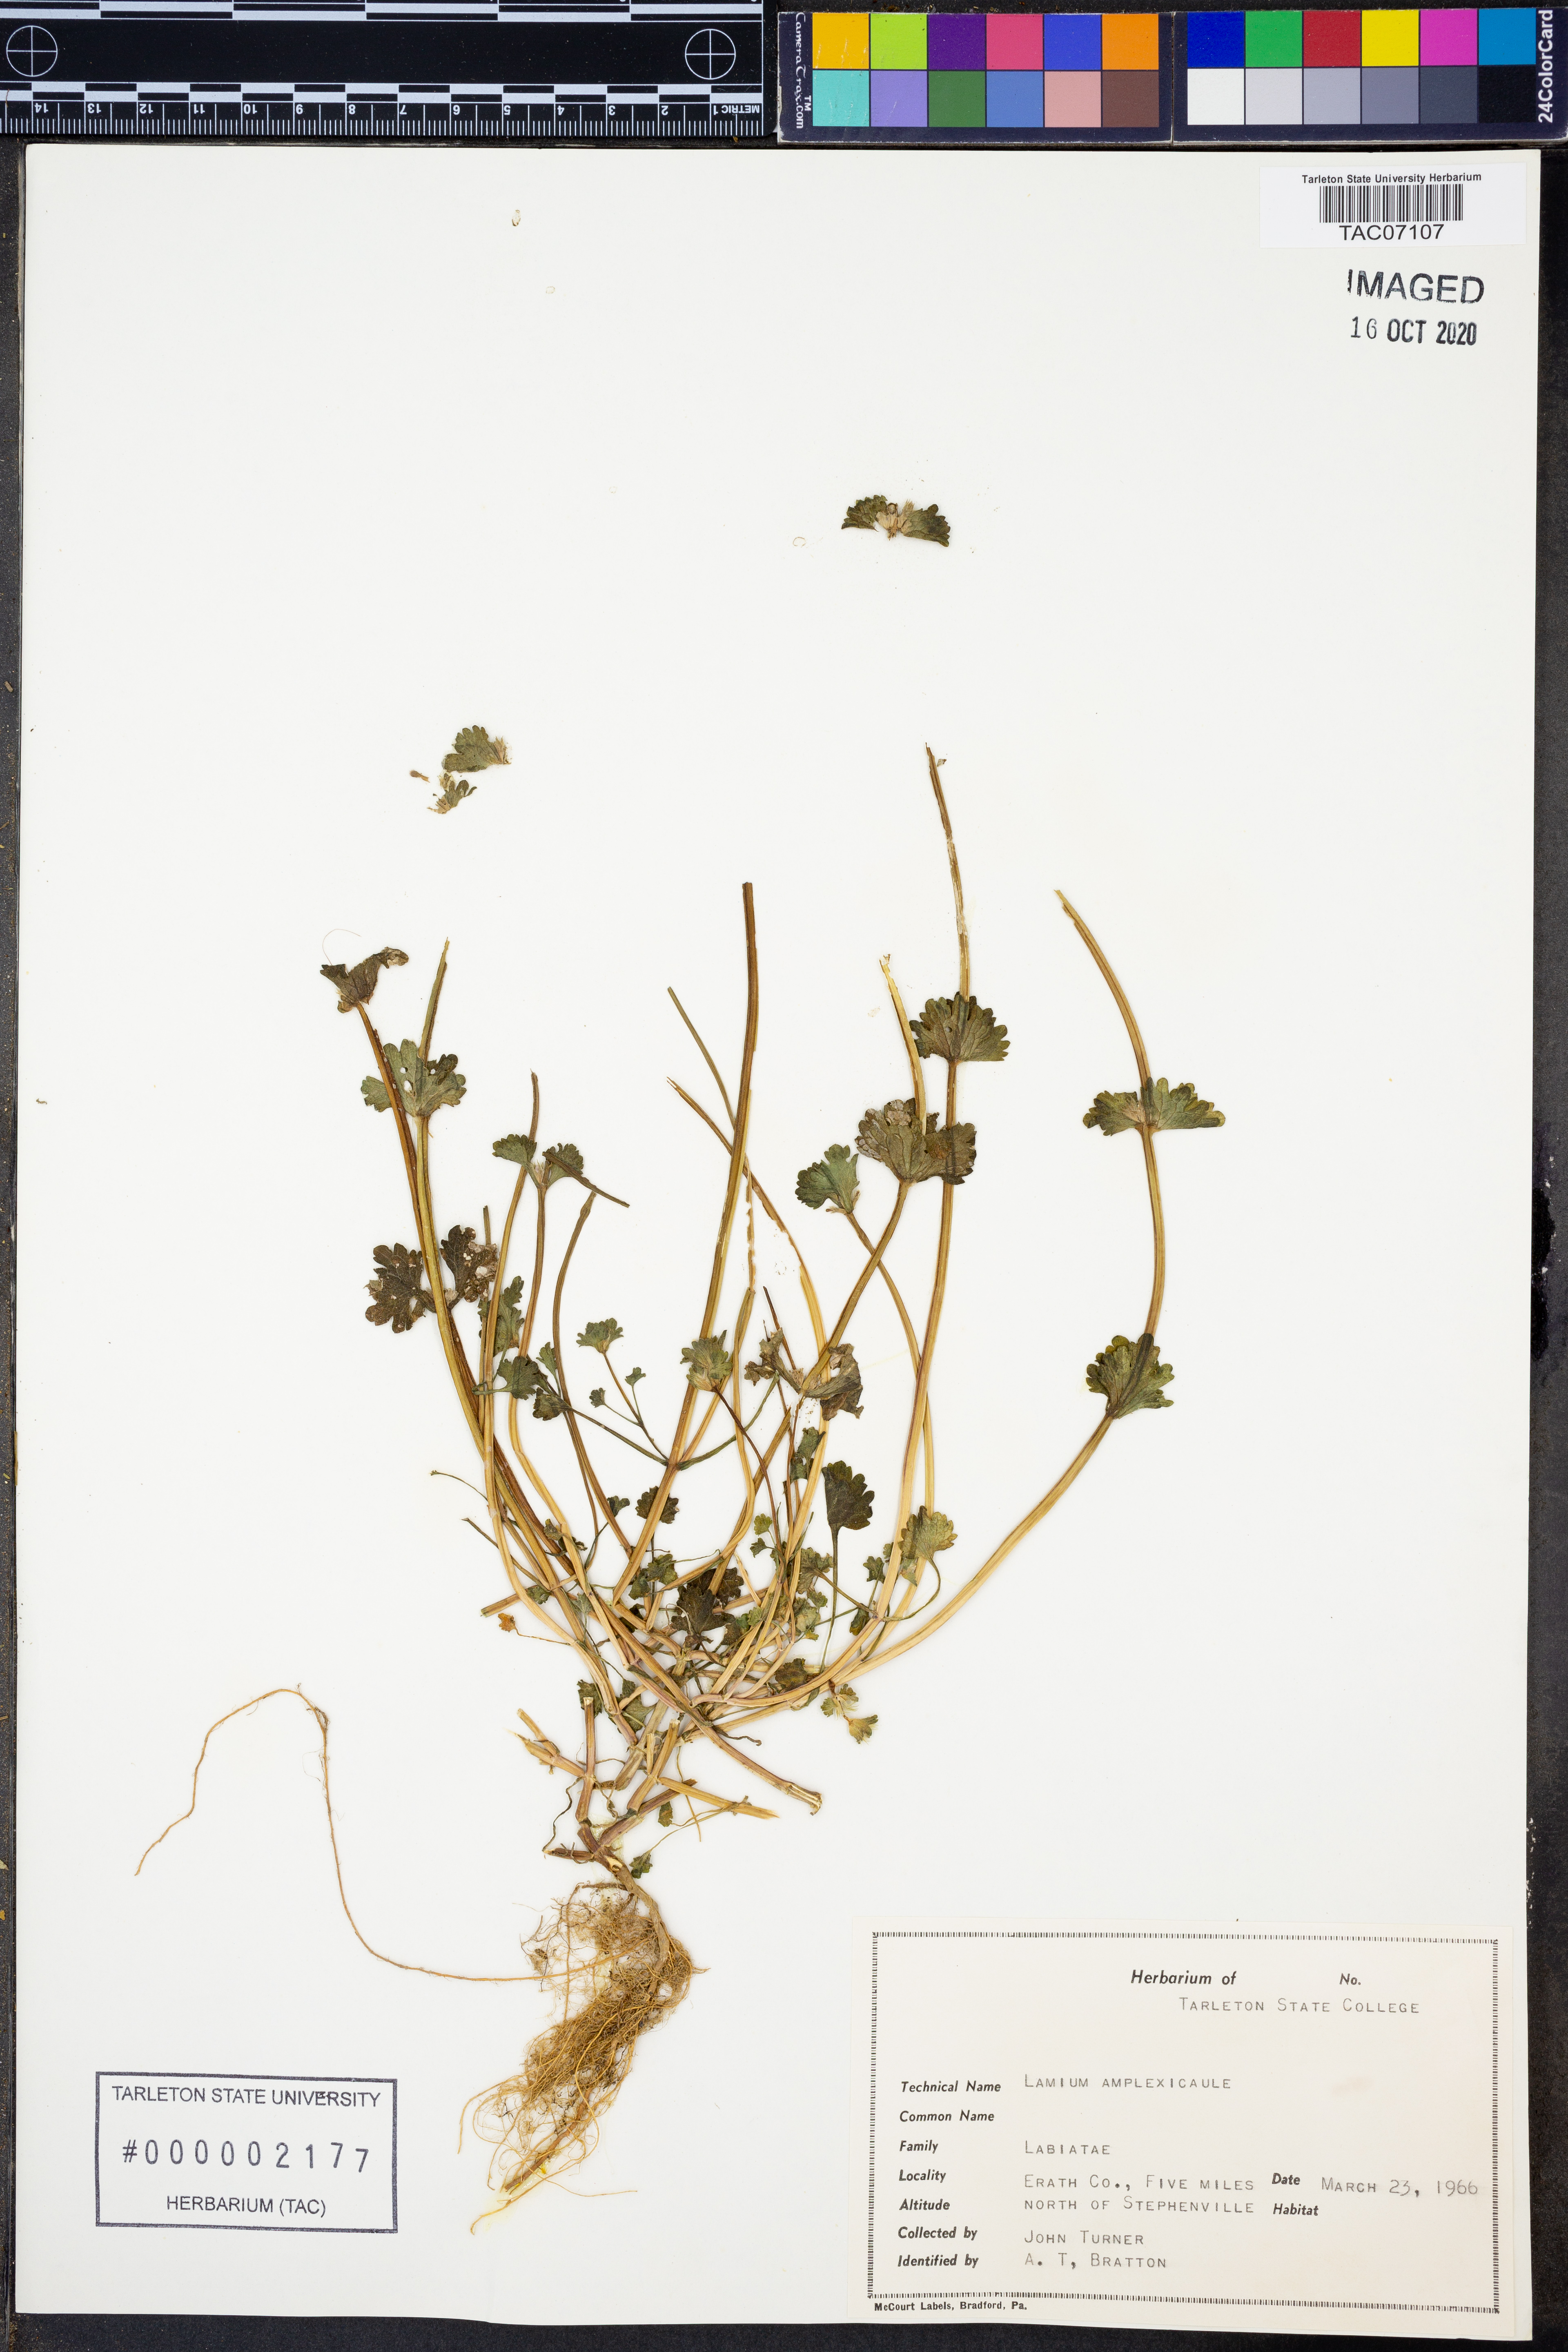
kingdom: Plantae
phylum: Tracheophyta
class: Magnoliopsida
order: Lamiales
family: Lamiaceae
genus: Lamium
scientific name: Lamium amplexicaule
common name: Henbit dead-nettle
